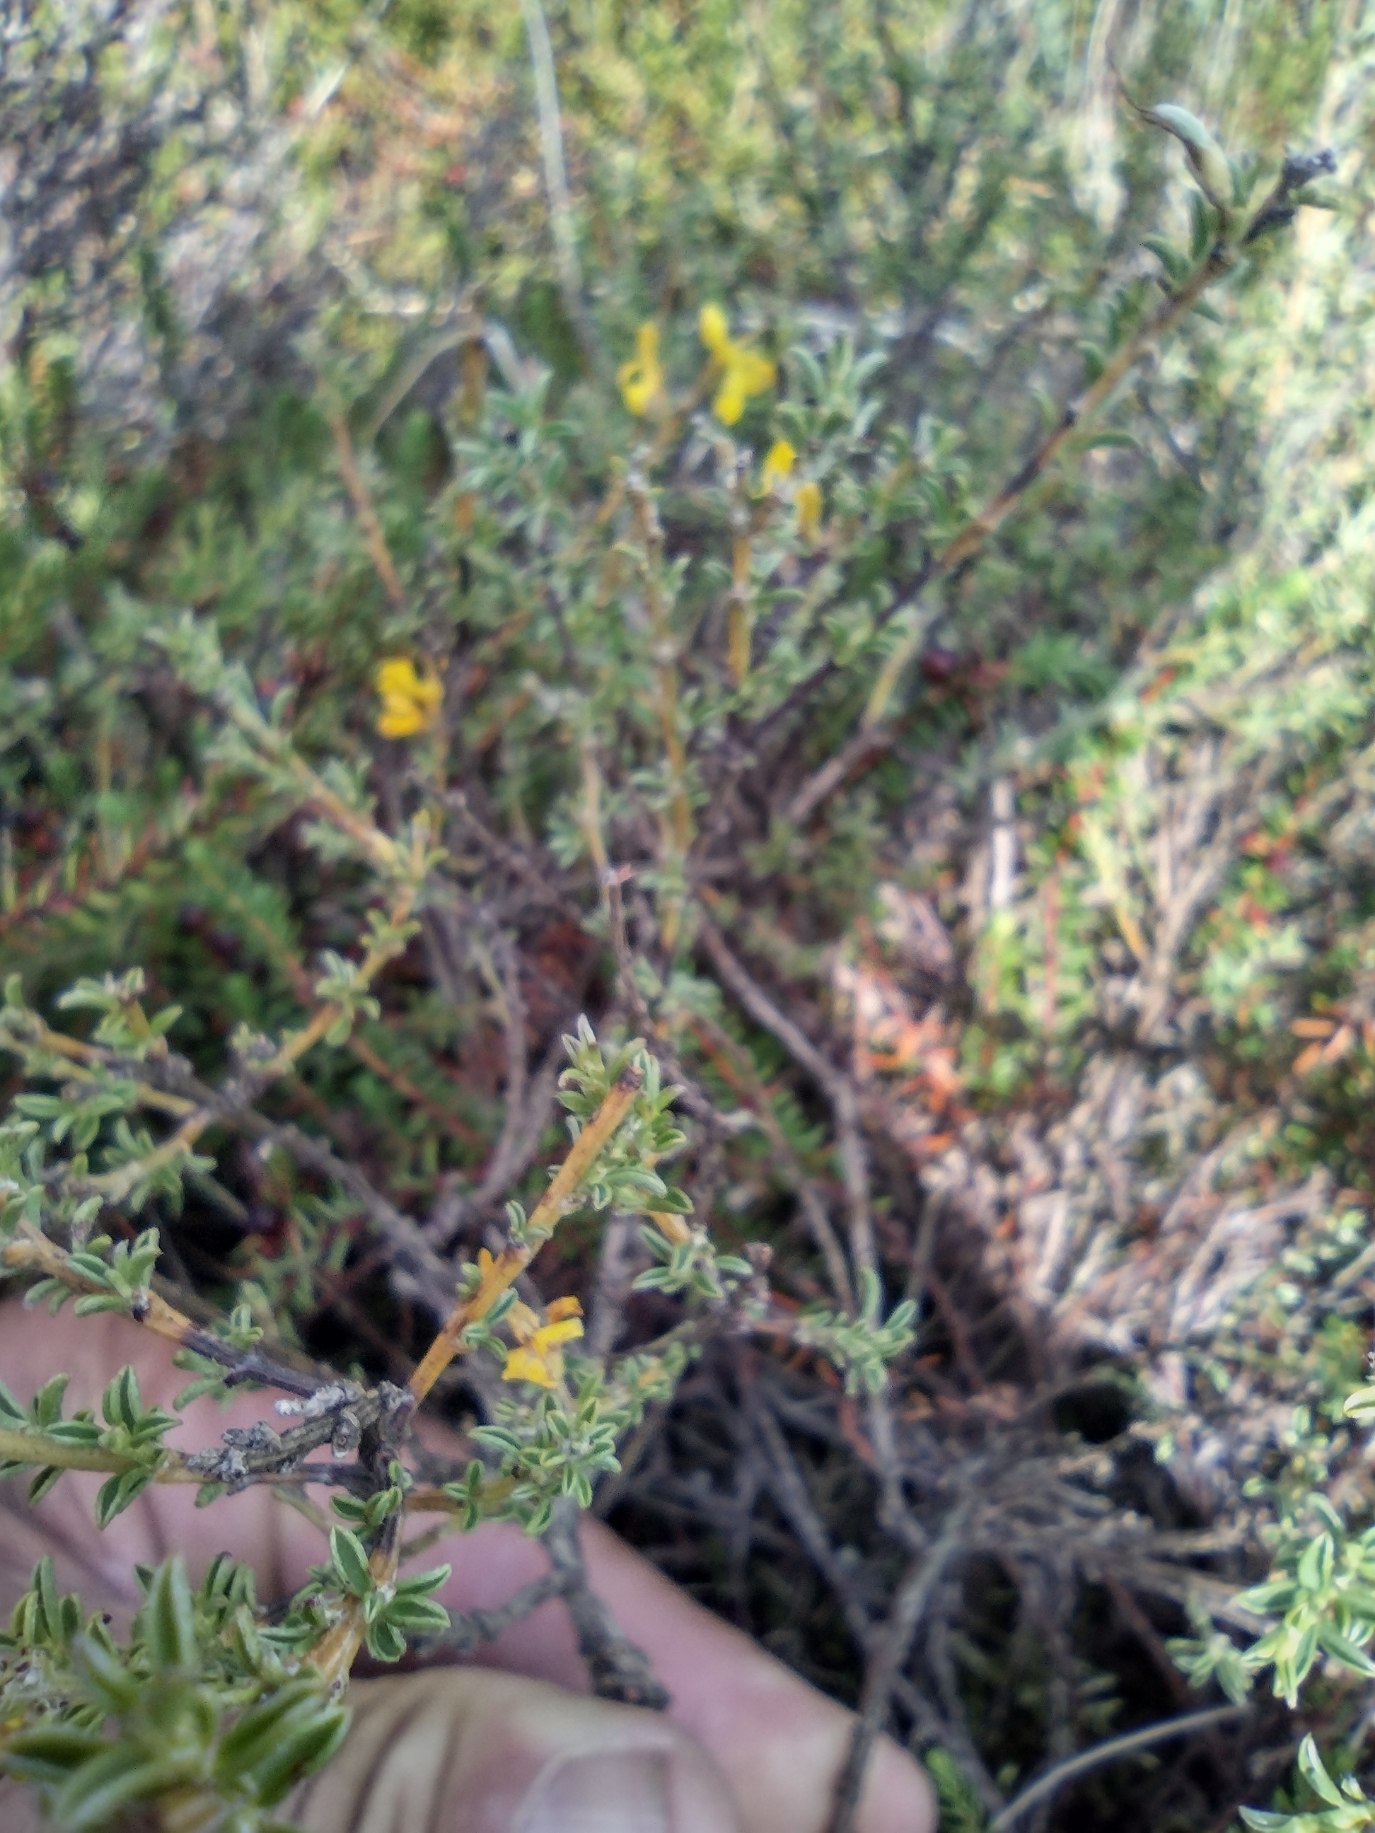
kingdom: Plantae
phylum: Tracheophyta
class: Magnoliopsida
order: Fabales
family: Fabaceae
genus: Genista
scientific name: Genista pilosa
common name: Håret visse
